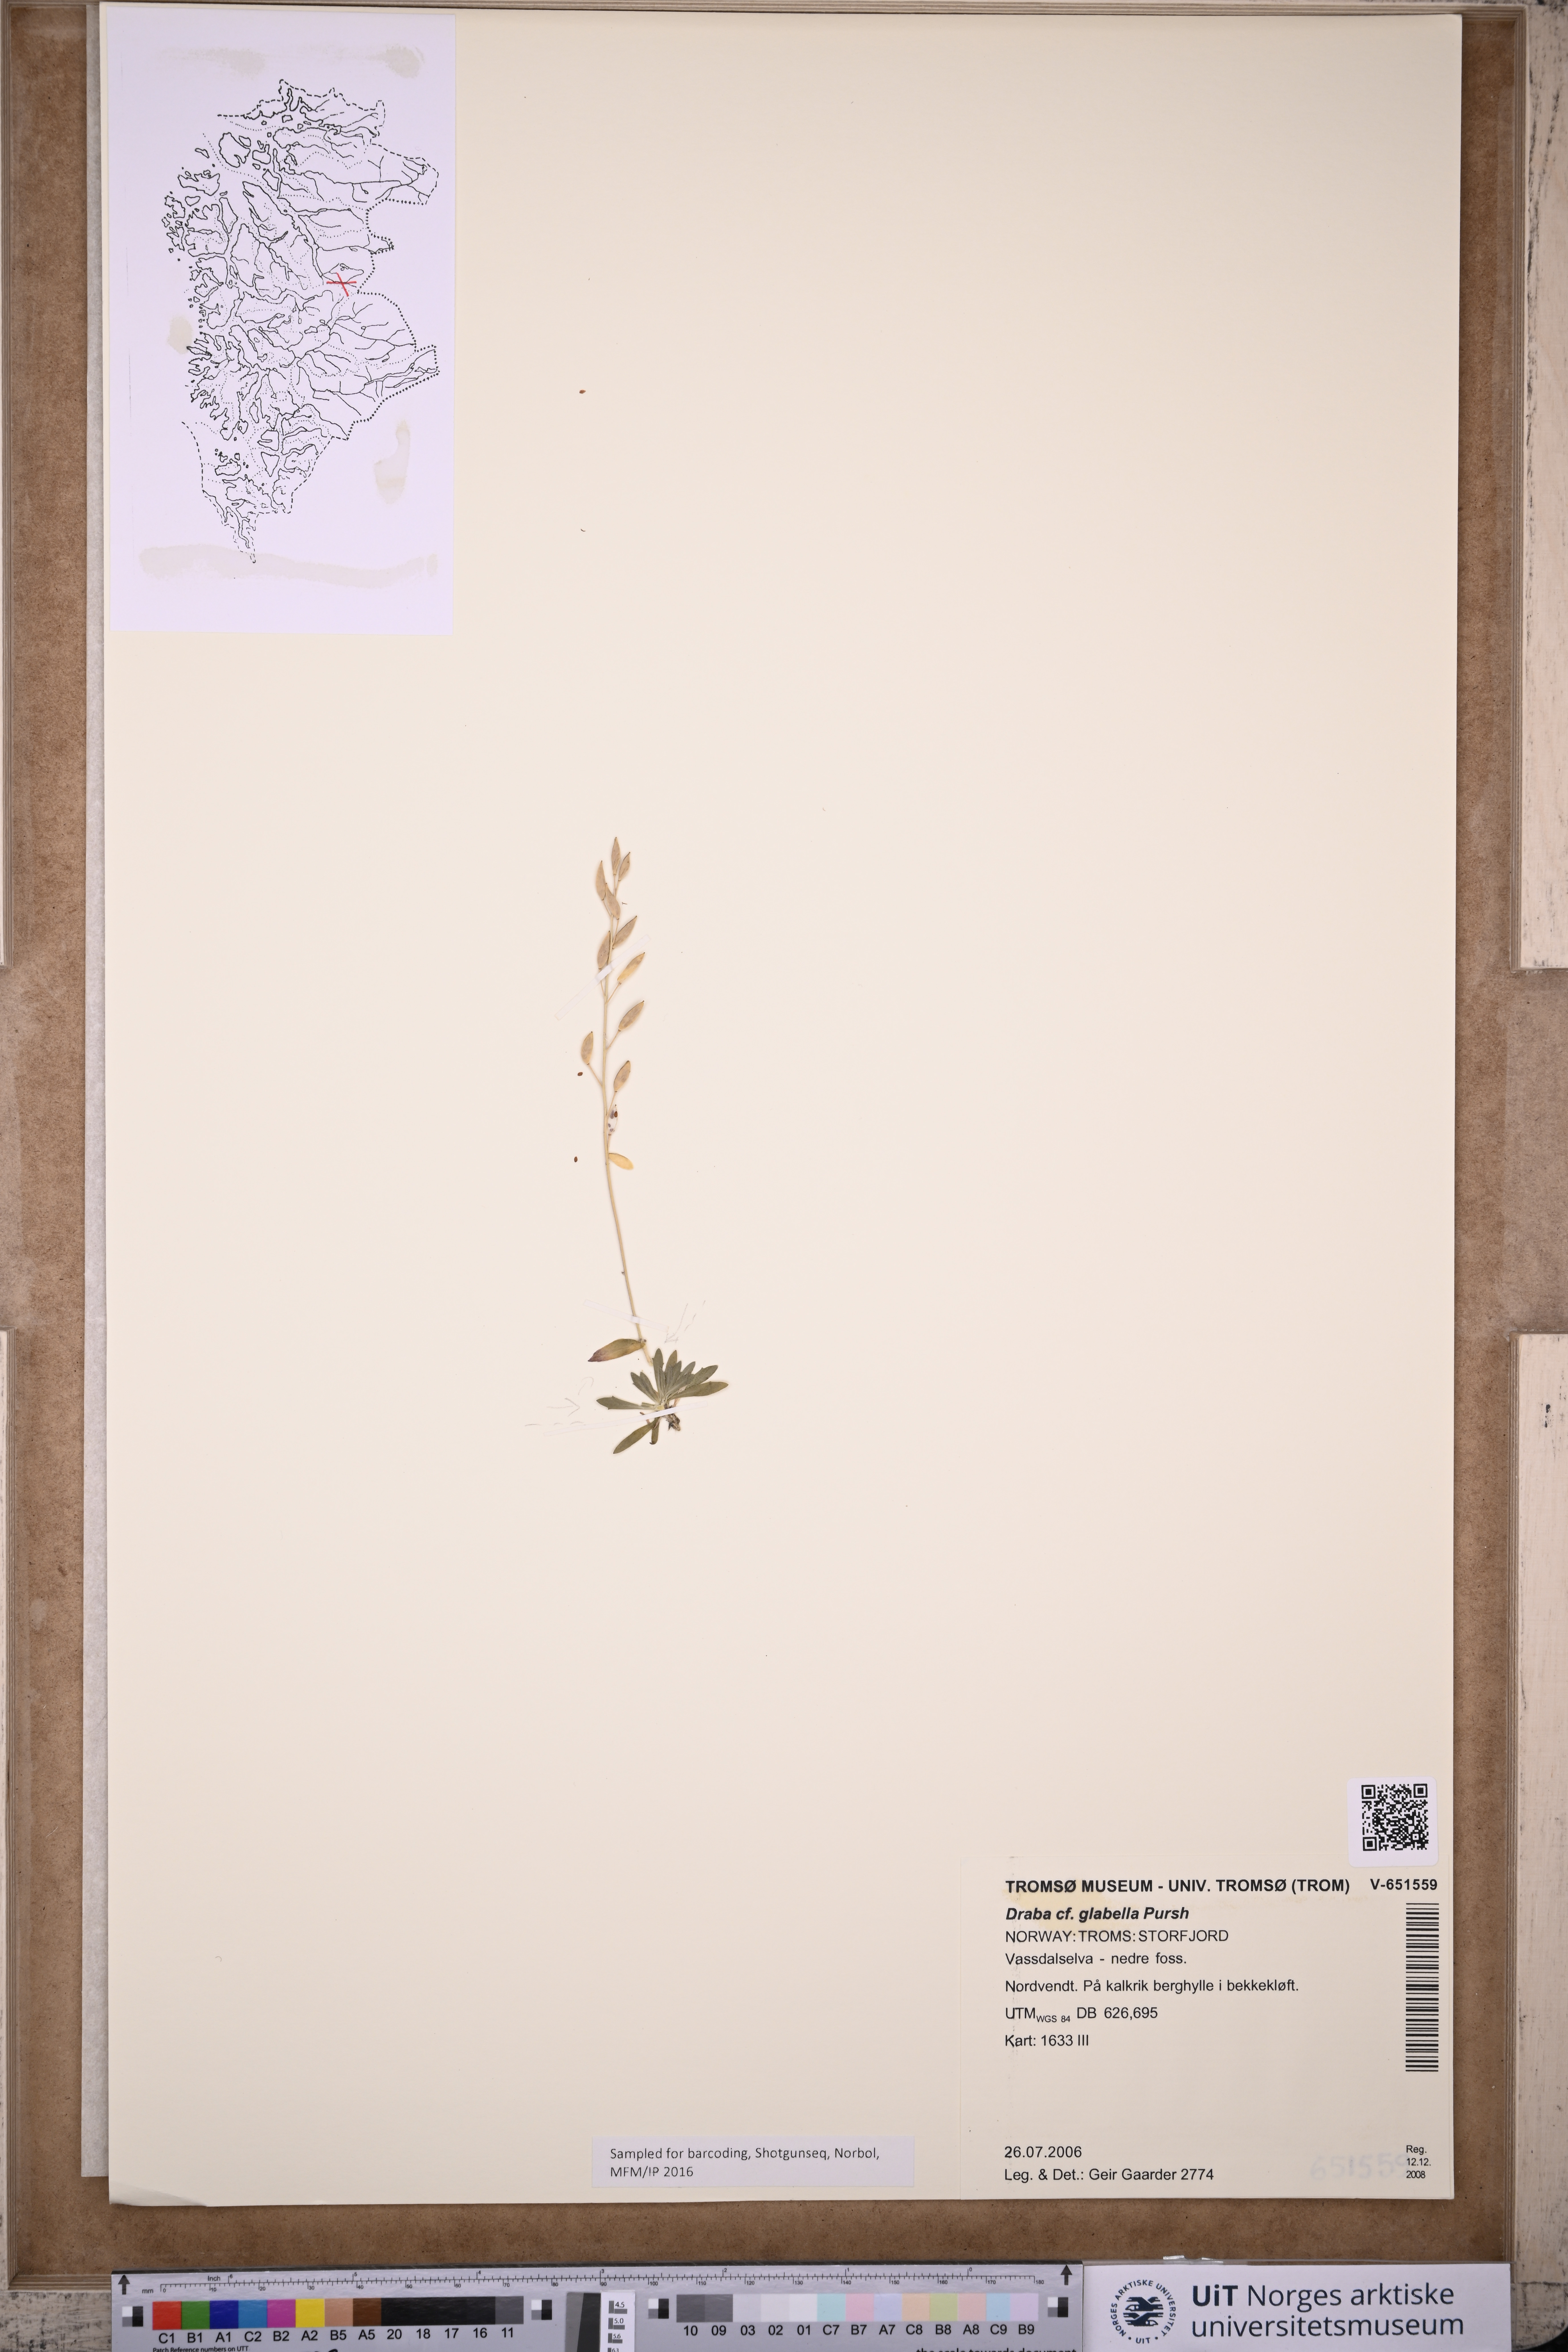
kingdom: Plantae
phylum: Tracheophyta
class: Magnoliopsida
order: Brassicales
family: Brassicaceae
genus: Draba
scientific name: Draba glabella
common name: Glaucous draba
